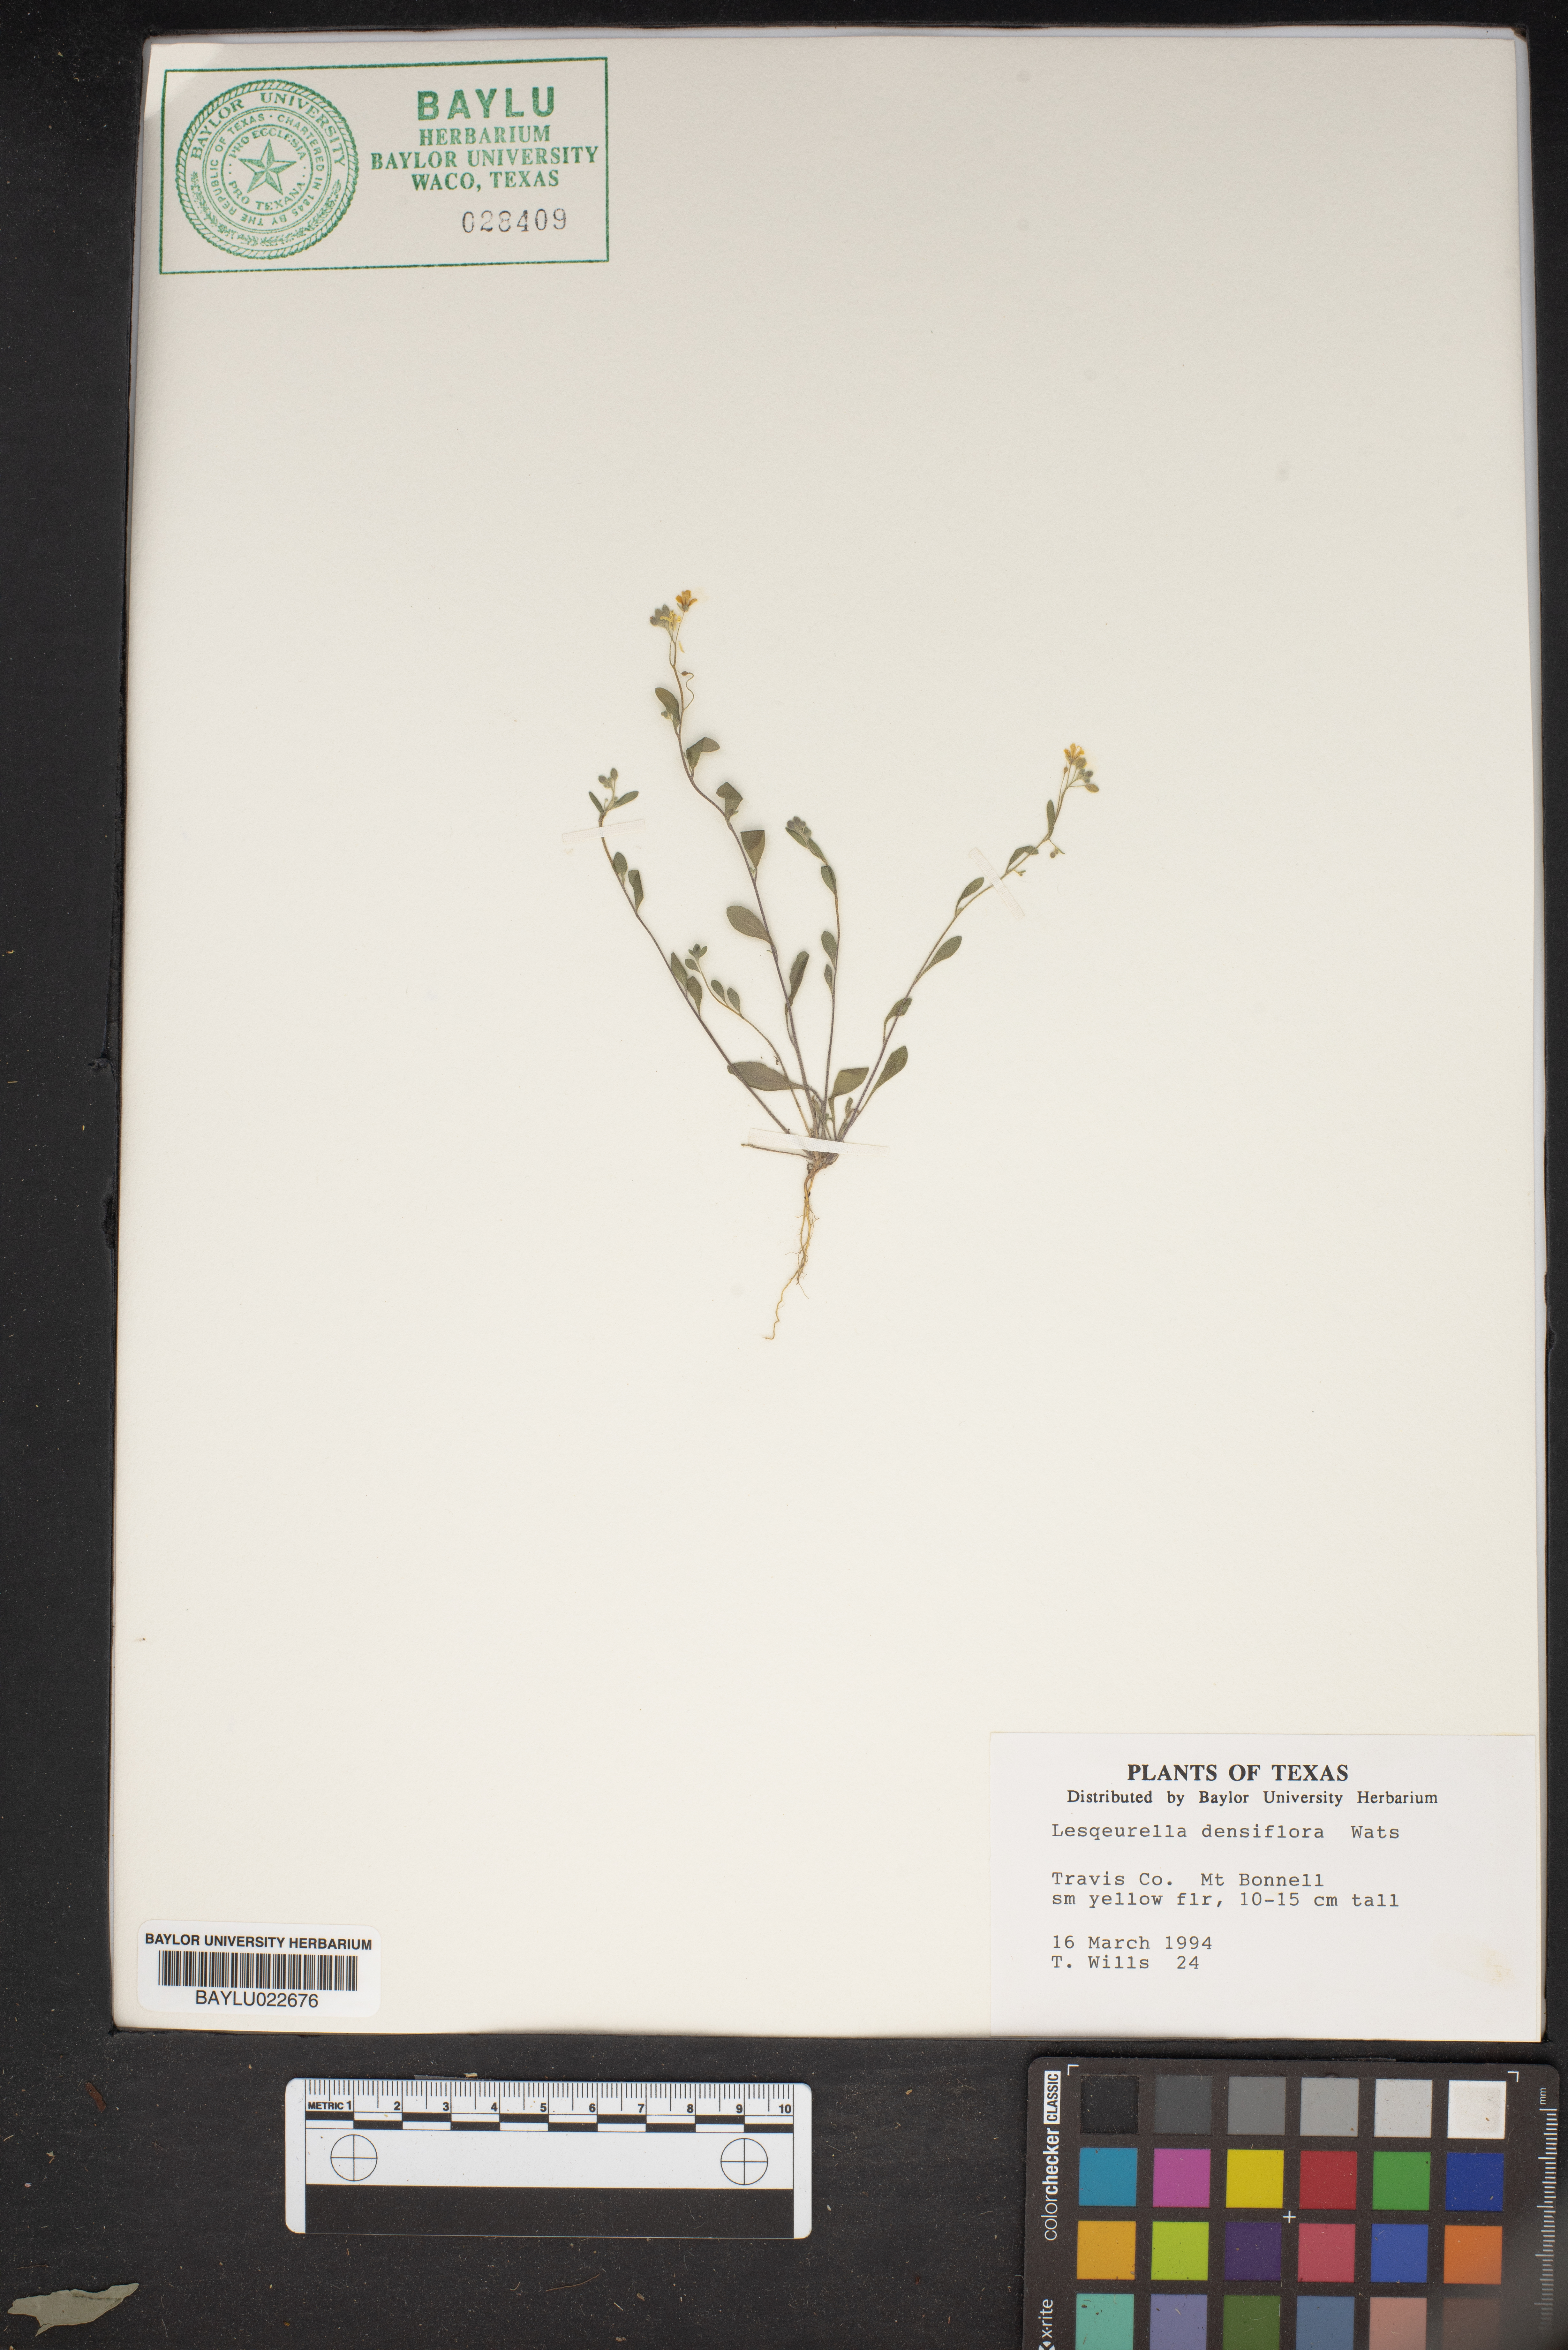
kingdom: Plantae
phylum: Tracheophyta
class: Magnoliopsida
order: Brassicales
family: Brassicaceae
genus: Physaria
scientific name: Physaria densiflora
